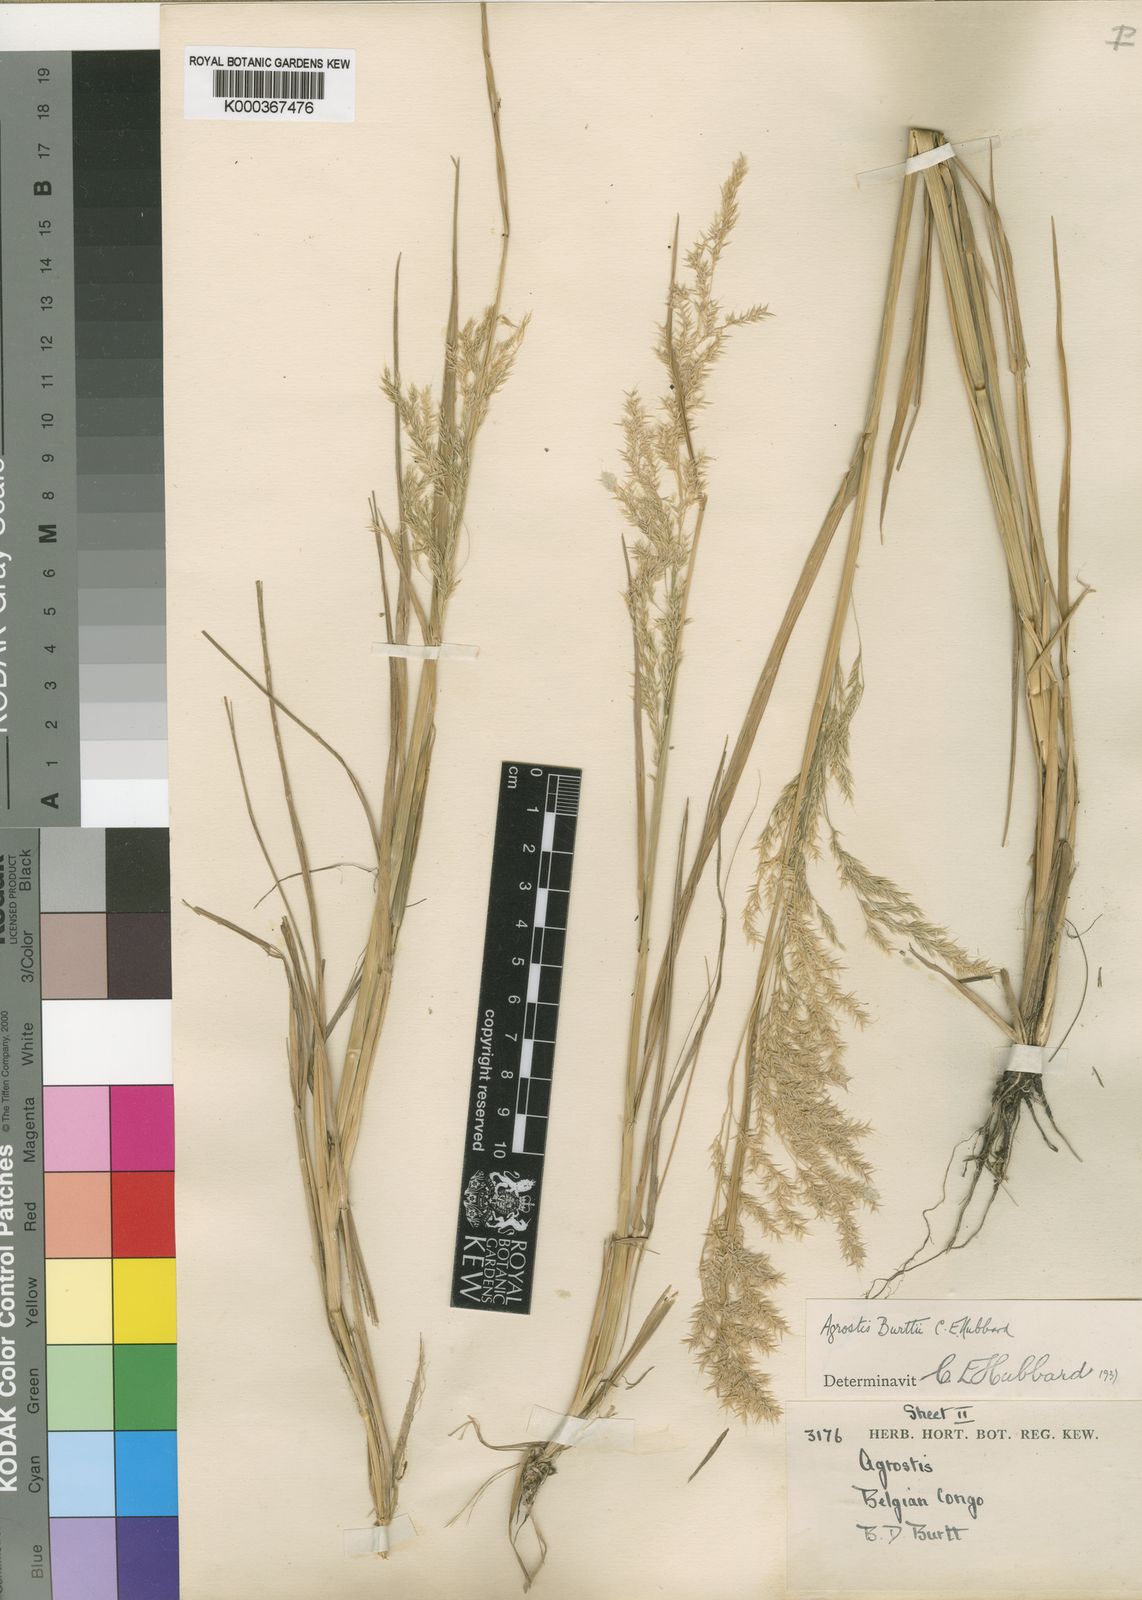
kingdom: Plantae
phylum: Tracheophyta
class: Liliopsida
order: Poales
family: Poaceae
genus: Agrostis
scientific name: Agrostis kilimandscharica
